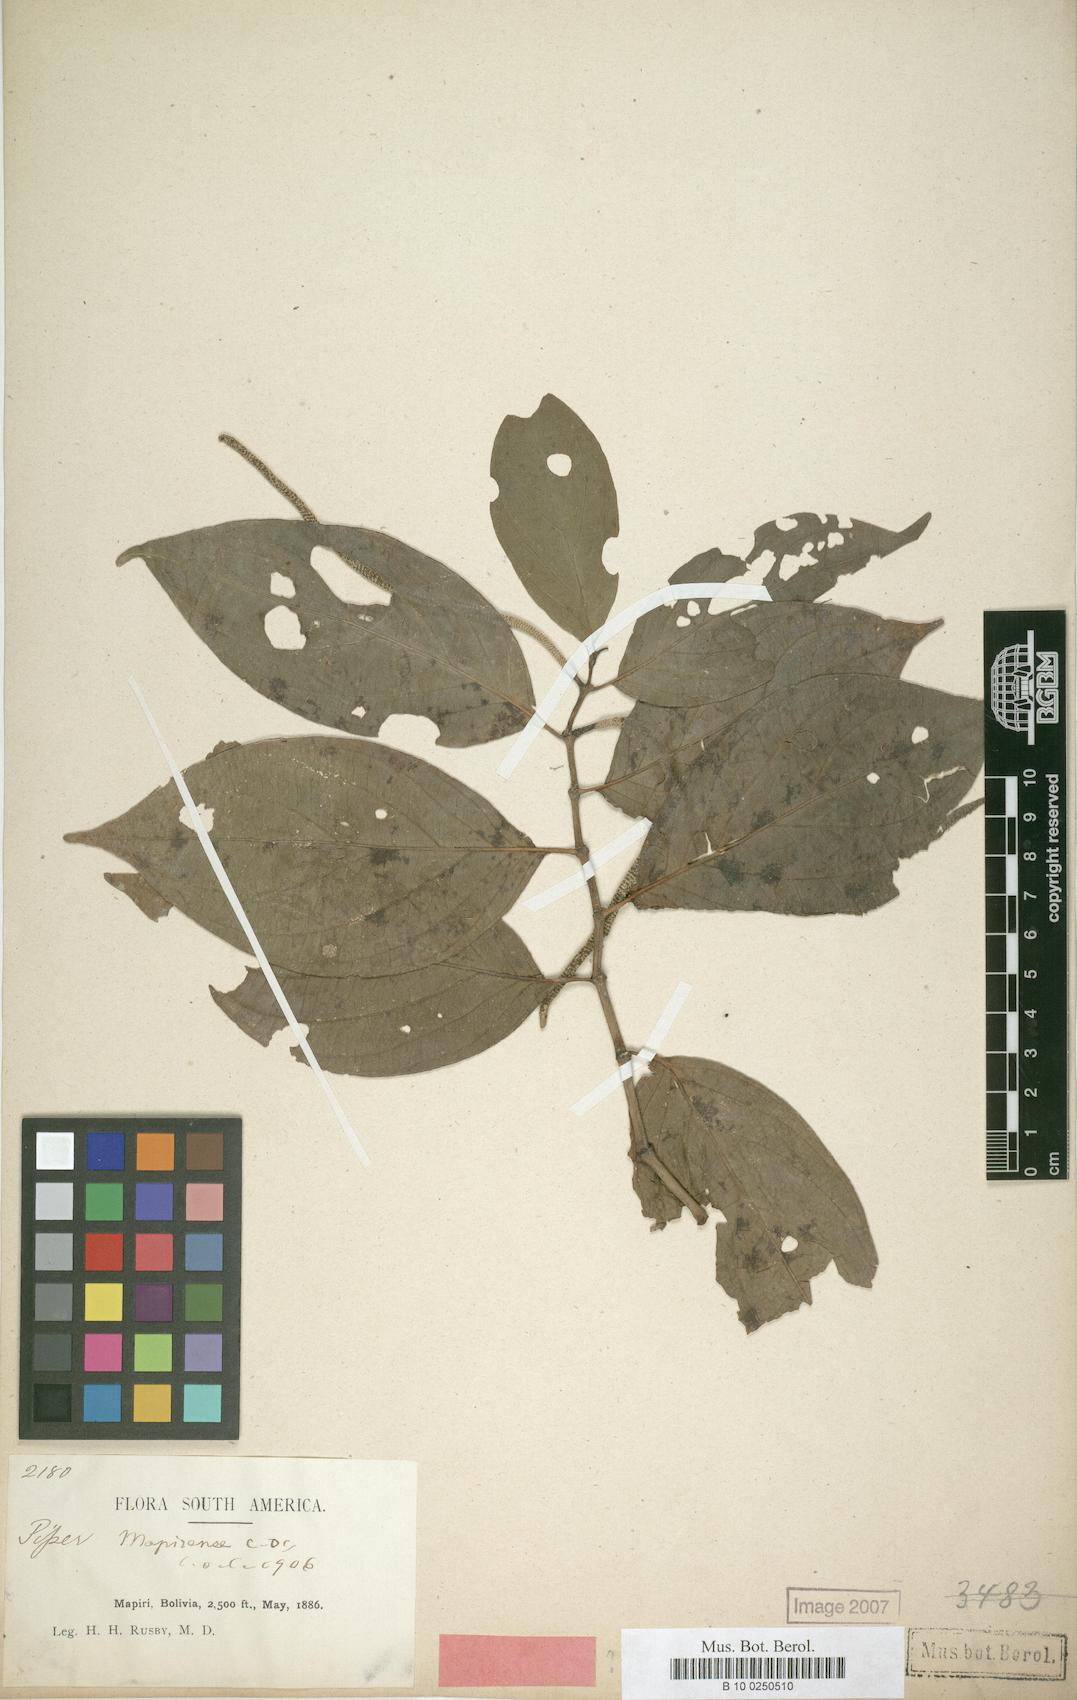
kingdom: Plantae
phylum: Tracheophyta
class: Magnoliopsida
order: Piperales
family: Piperaceae
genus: Piper
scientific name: Piper mapirense
